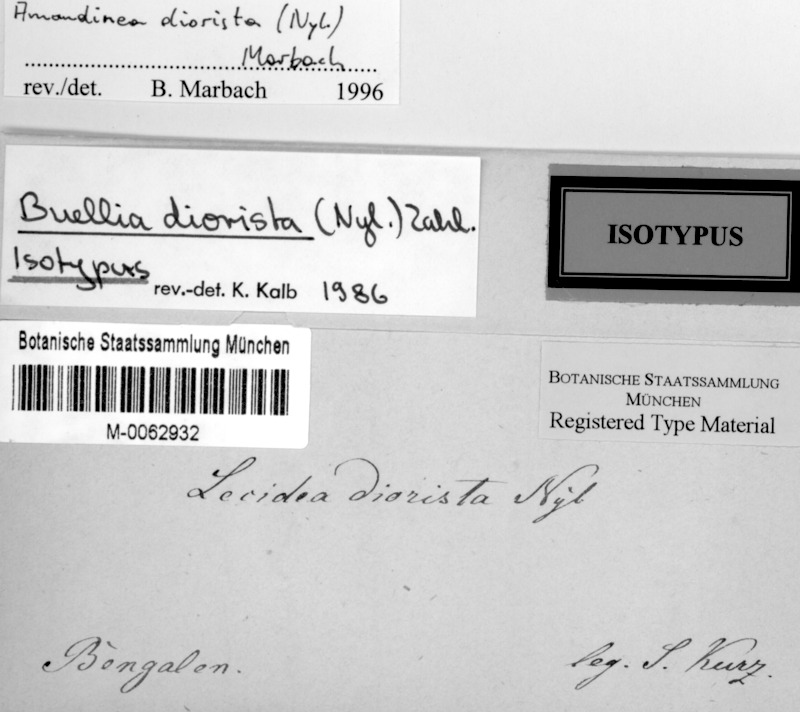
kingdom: Fungi
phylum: Ascomycota
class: Lecanoromycetes
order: Caliciales
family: Caliciaceae
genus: Amandinea
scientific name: Amandinea diorista
